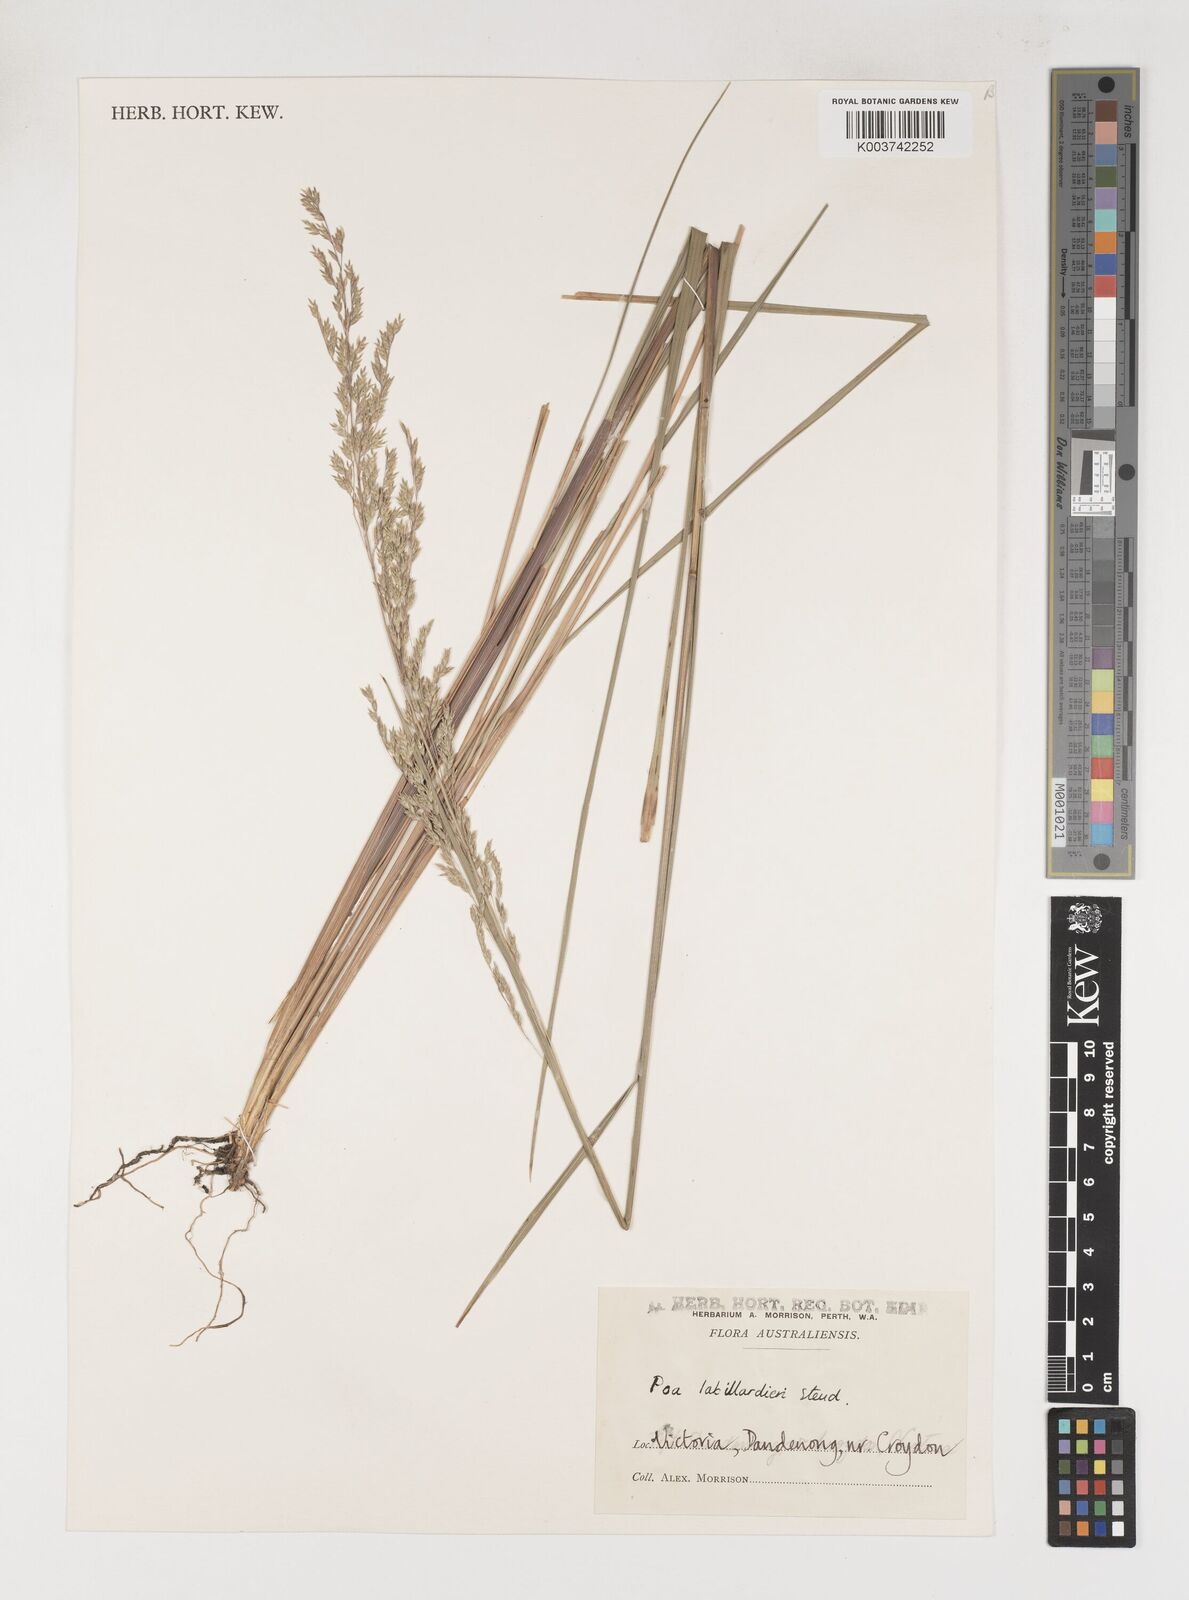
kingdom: Plantae
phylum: Tracheophyta
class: Liliopsida
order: Poales
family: Poaceae
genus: Poa
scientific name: Poa labillardierei
